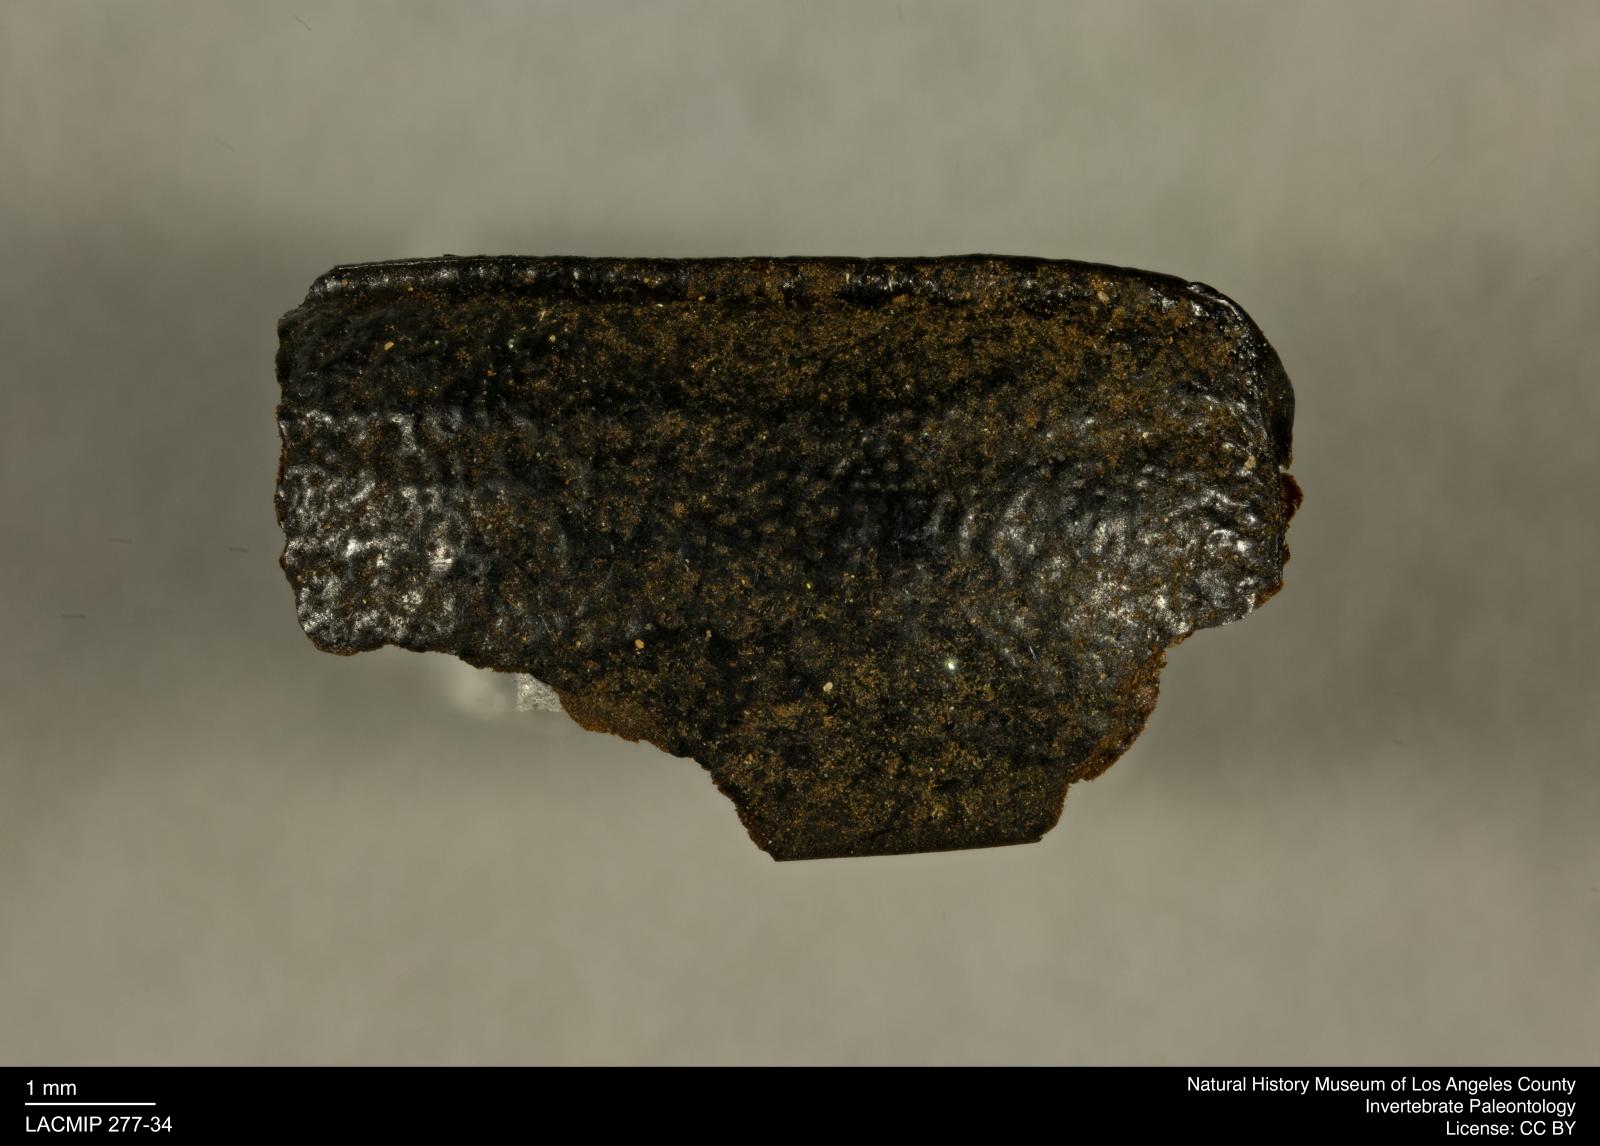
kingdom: Animalia
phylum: Arthropoda
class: Insecta
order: Coleoptera
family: Tenebrionidae
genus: Coniontis
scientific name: Coniontis abdominalis
